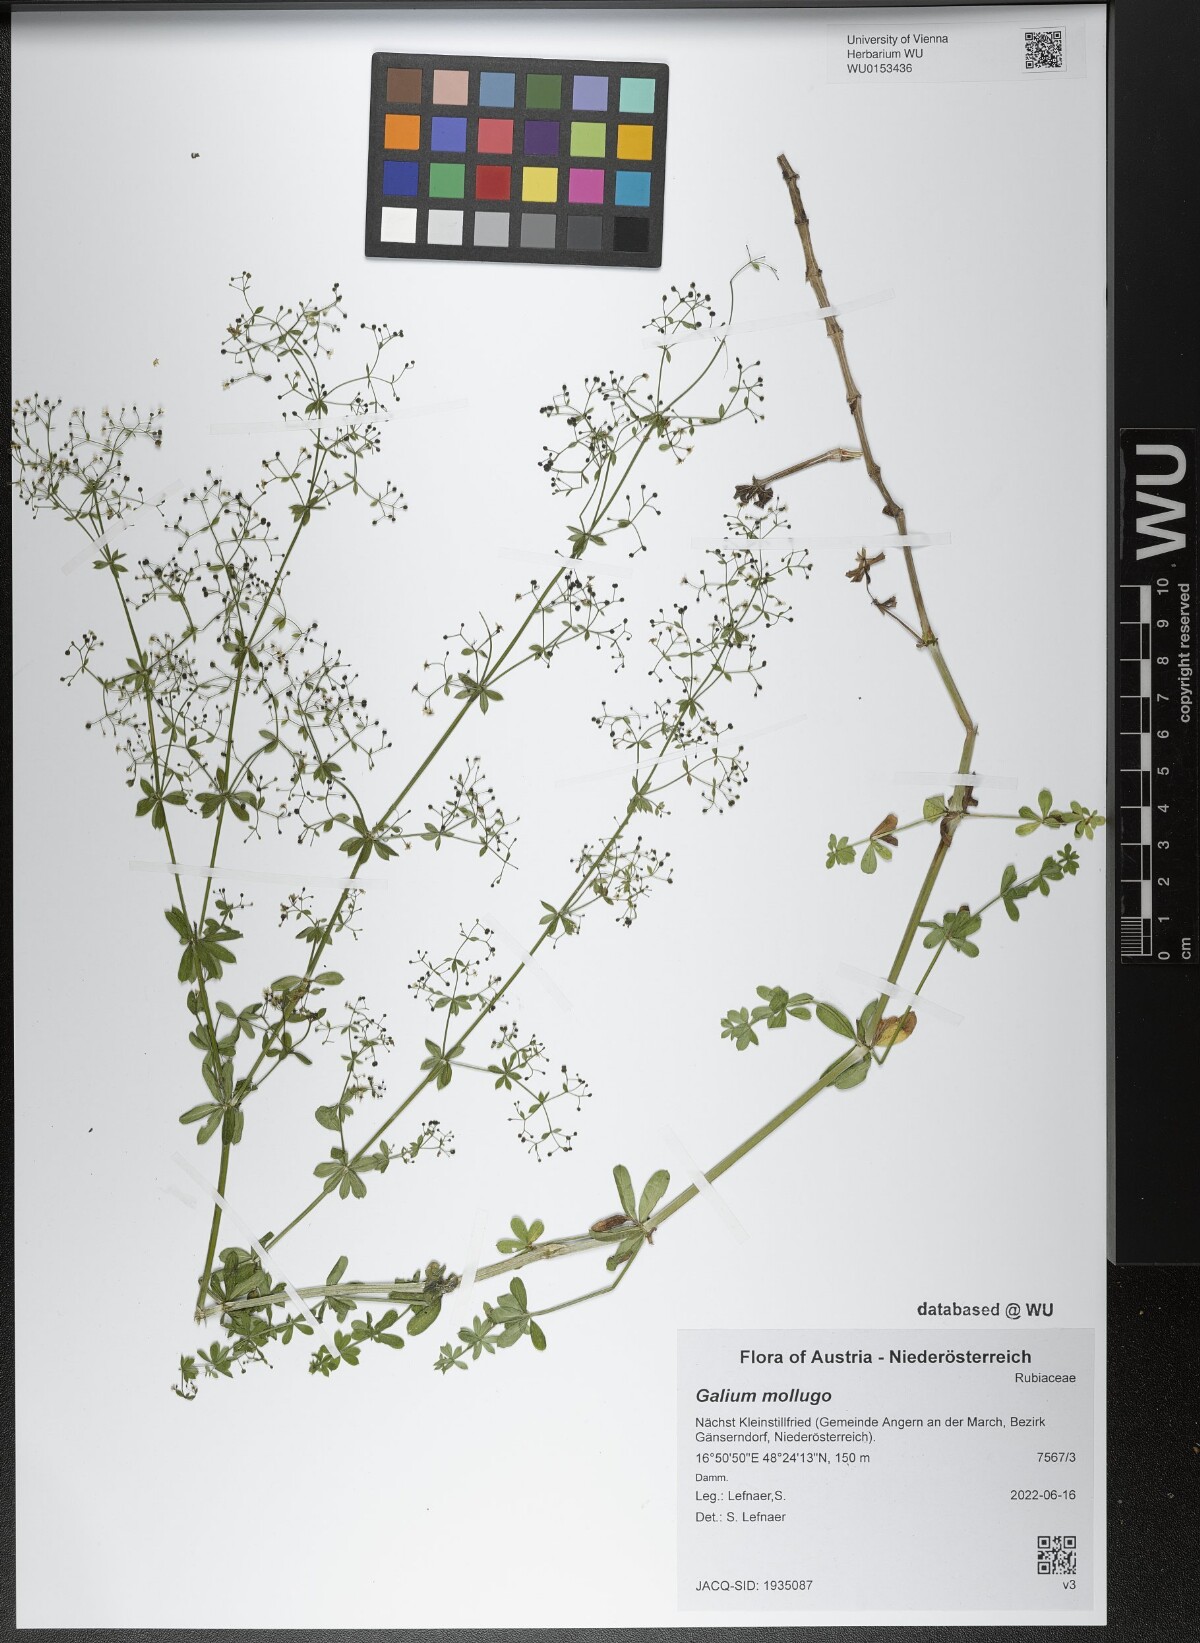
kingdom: Plantae
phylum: Tracheophyta
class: Magnoliopsida
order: Gentianales
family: Rubiaceae
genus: Galium
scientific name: Galium mollugo
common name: Hedge bedstraw
